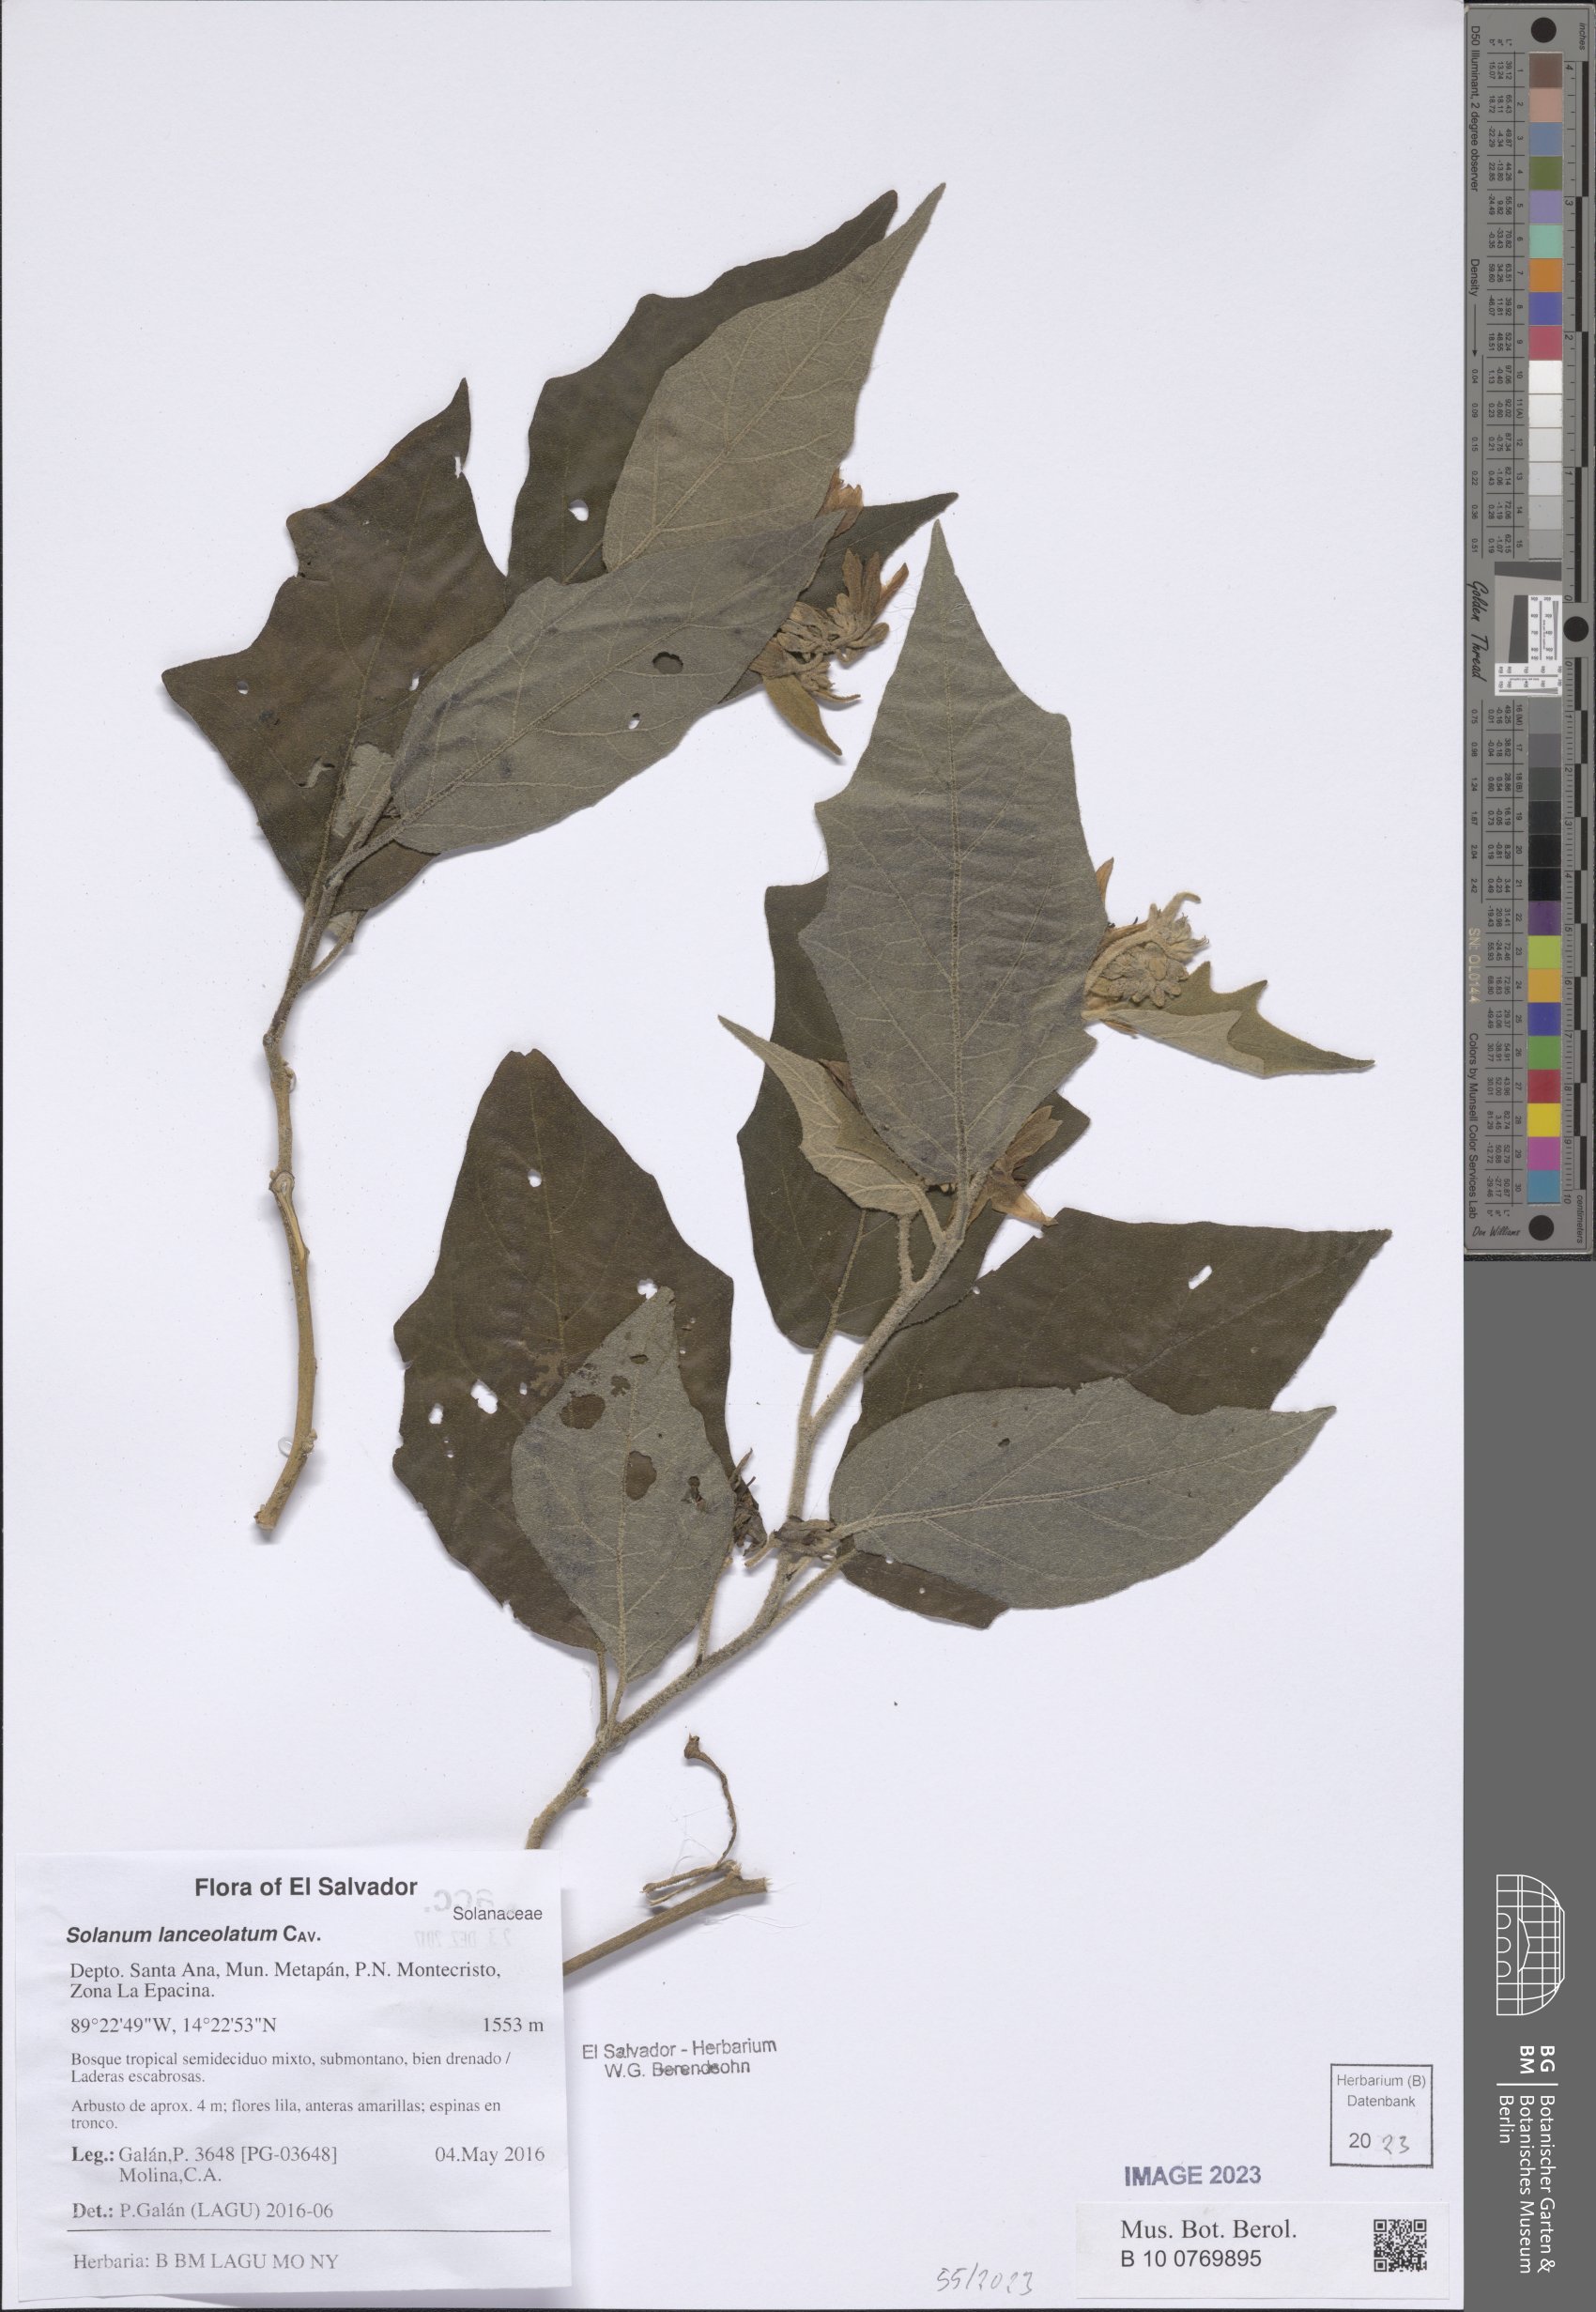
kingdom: Plantae
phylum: Tracheophyta
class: Magnoliopsida
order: Solanales
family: Solanaceae
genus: Solanum
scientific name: Solanum lanceolatum
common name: Orangeberry nightshade
